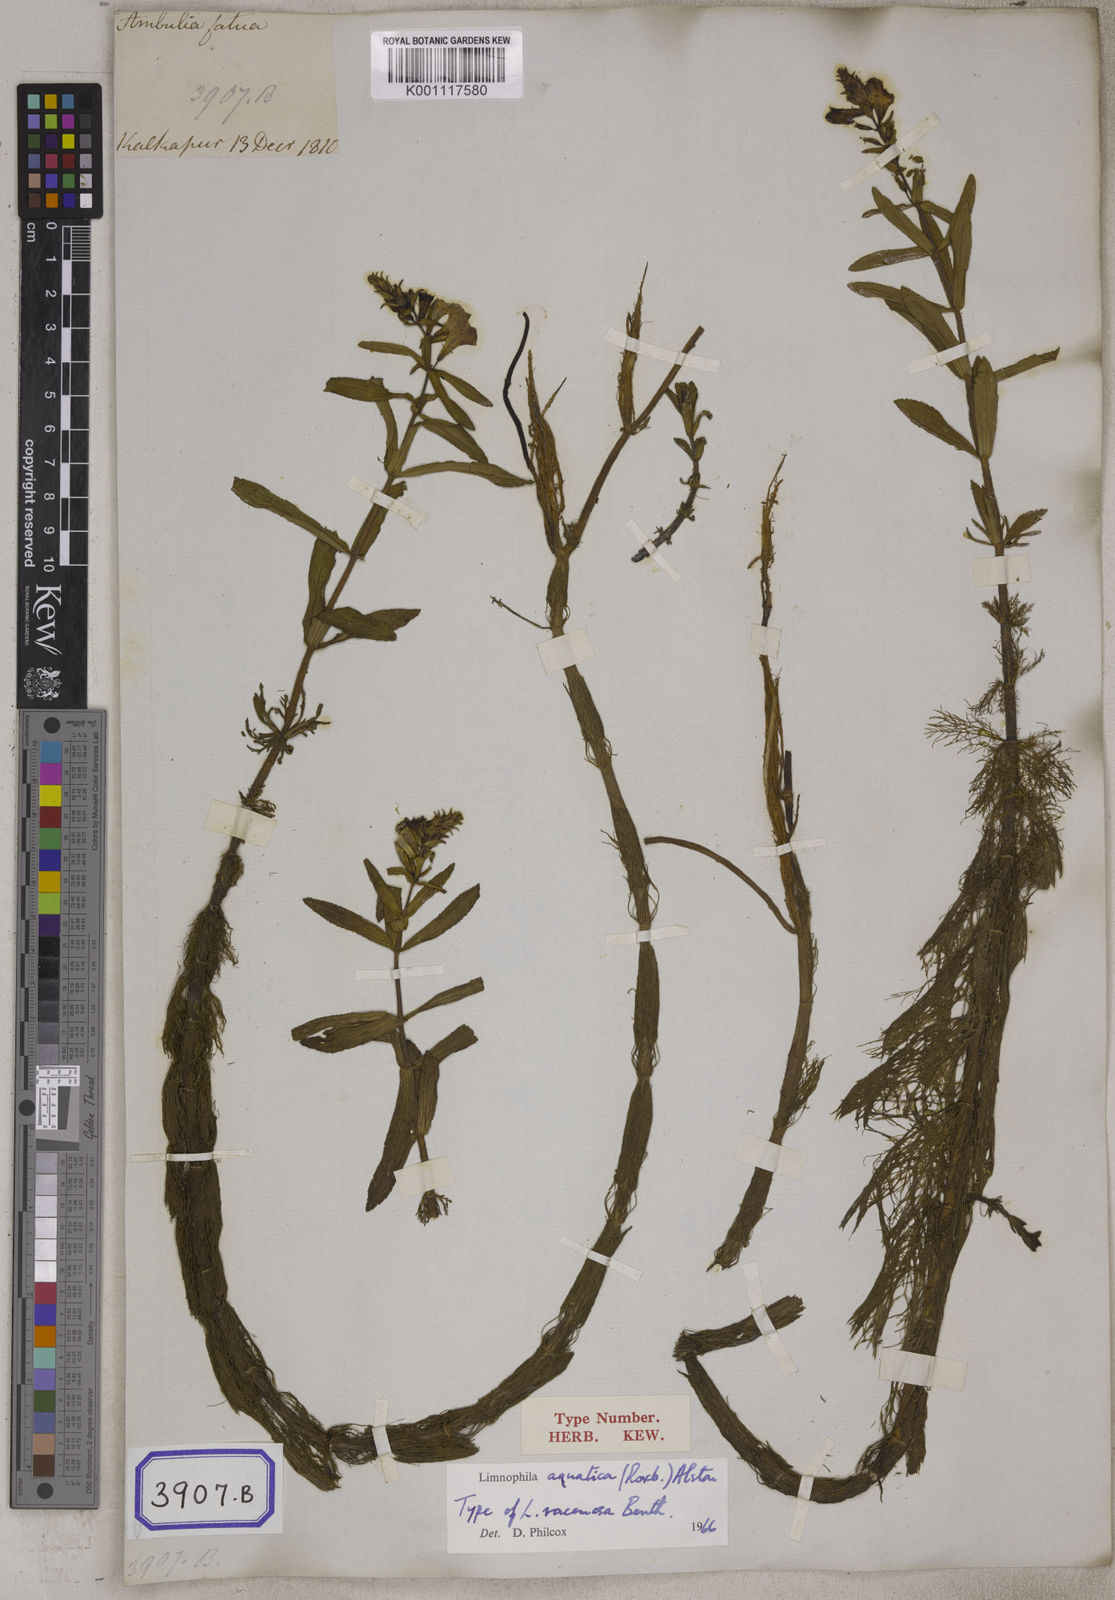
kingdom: Plantae
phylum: Tracheophyta
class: Magnoliopsida
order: Lamiales
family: Plantaginaceae
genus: Limnophila
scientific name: Limnophila aquatica
